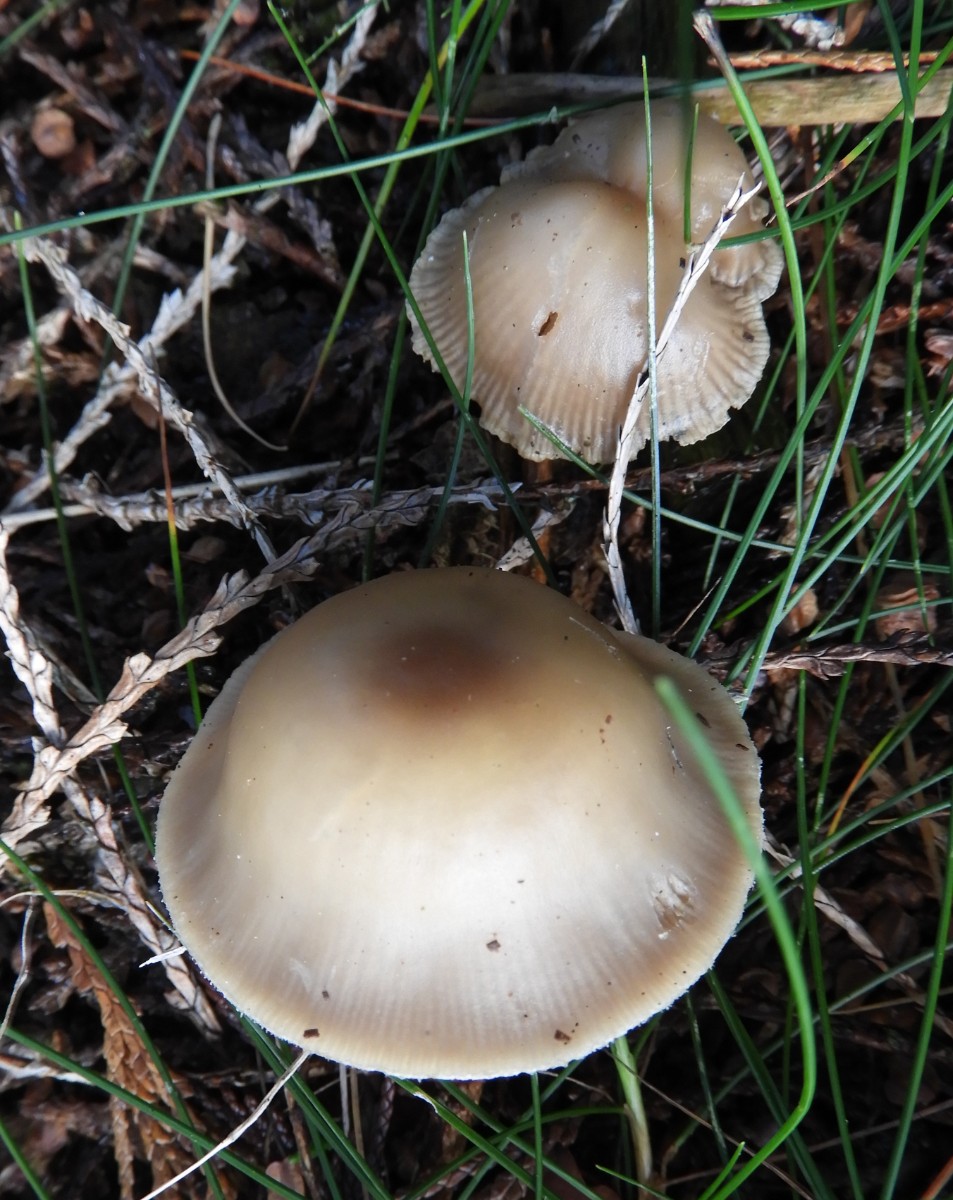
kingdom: Fungi
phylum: Basidiomycota
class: Agaricomycetes
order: Agaricales
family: Omphalotaceae
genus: Rhodocollybia
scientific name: Rhodocollybia asema
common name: horngrå fladhat
